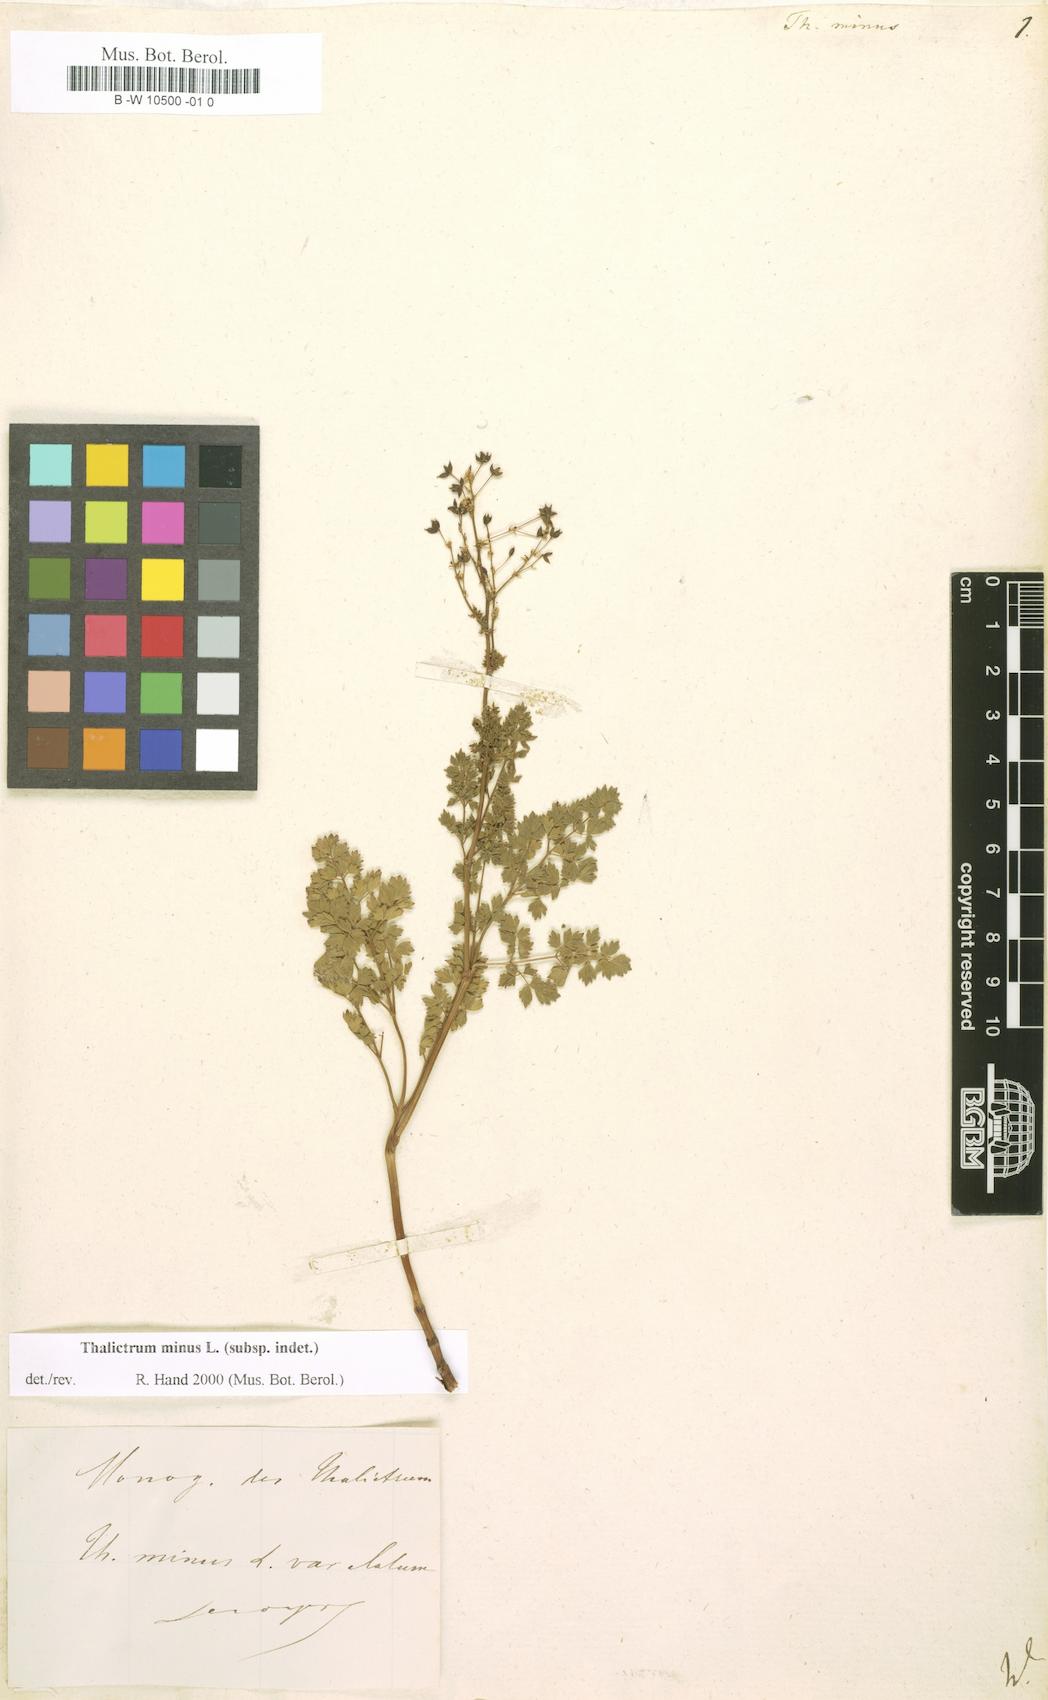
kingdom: Plantae
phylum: Tracheophyta
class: Magnoliopsida
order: Ranunculales
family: Ranunculaceae
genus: Thalictrum
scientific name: Thalictrum minus
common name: Lesser meadow-rue
